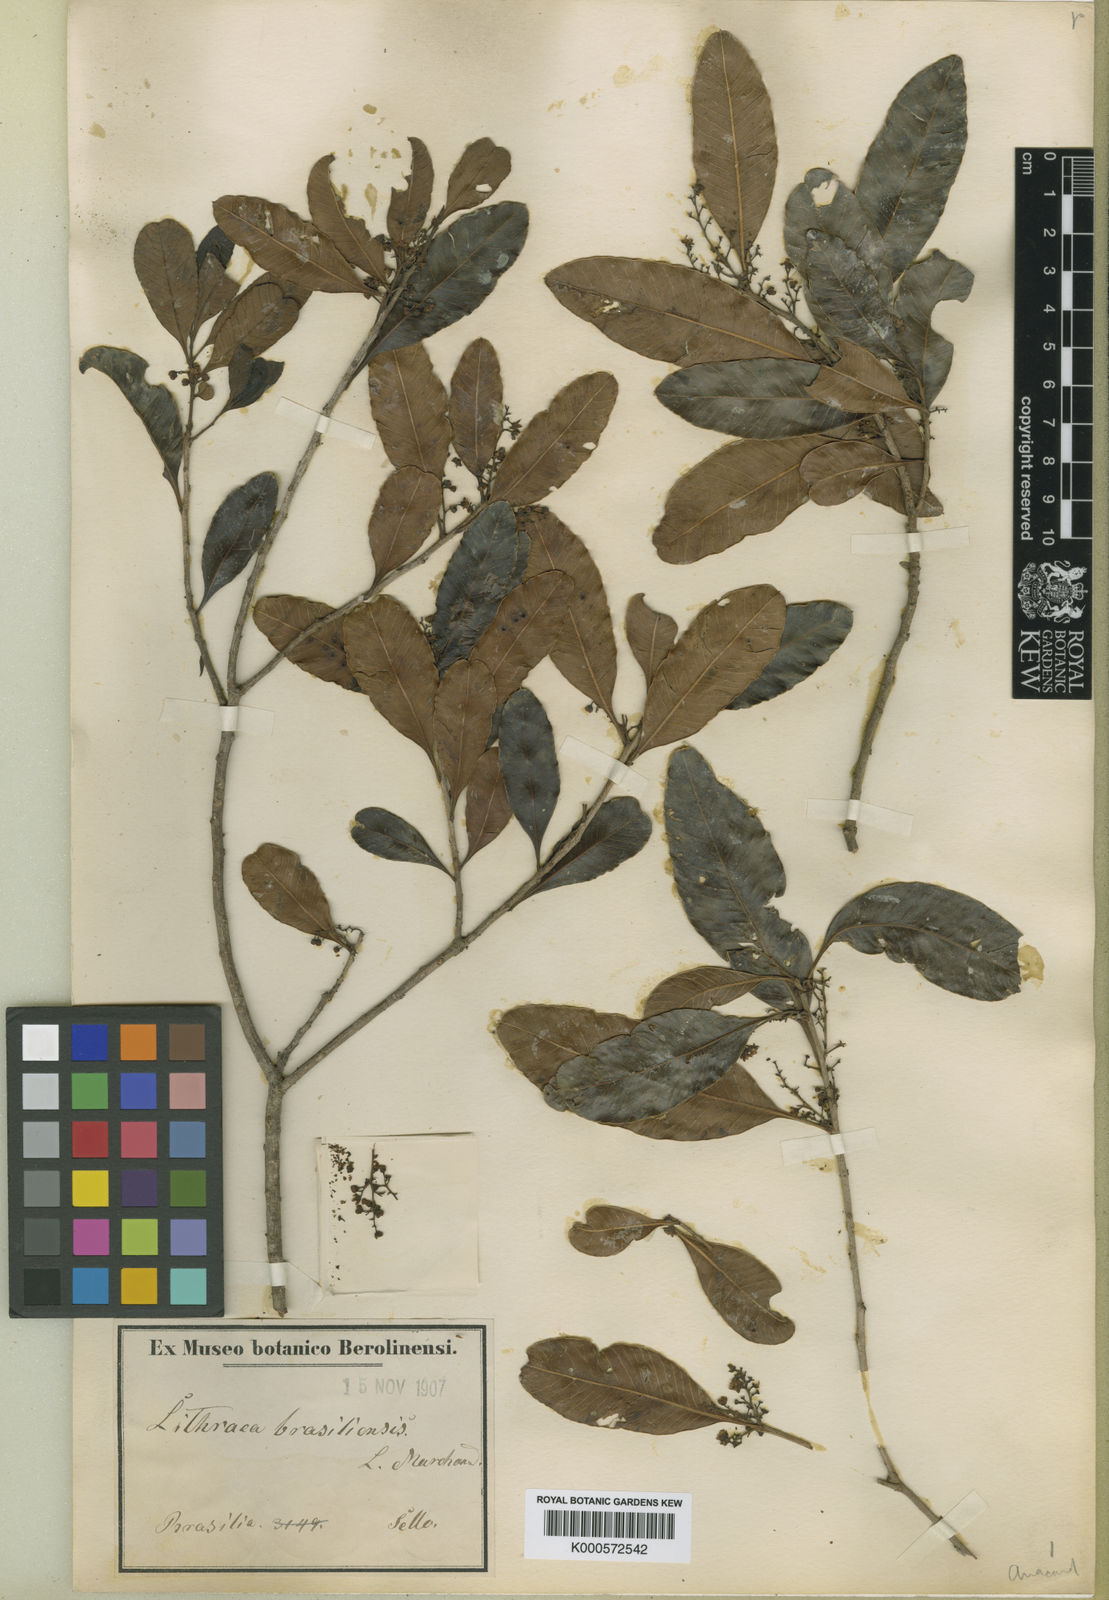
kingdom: Plantae
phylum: Tracheophyta
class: Magnoliopsida
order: Sapindales
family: Anacardiaceae
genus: Lithraea
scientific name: Lithraea brasiliensis
